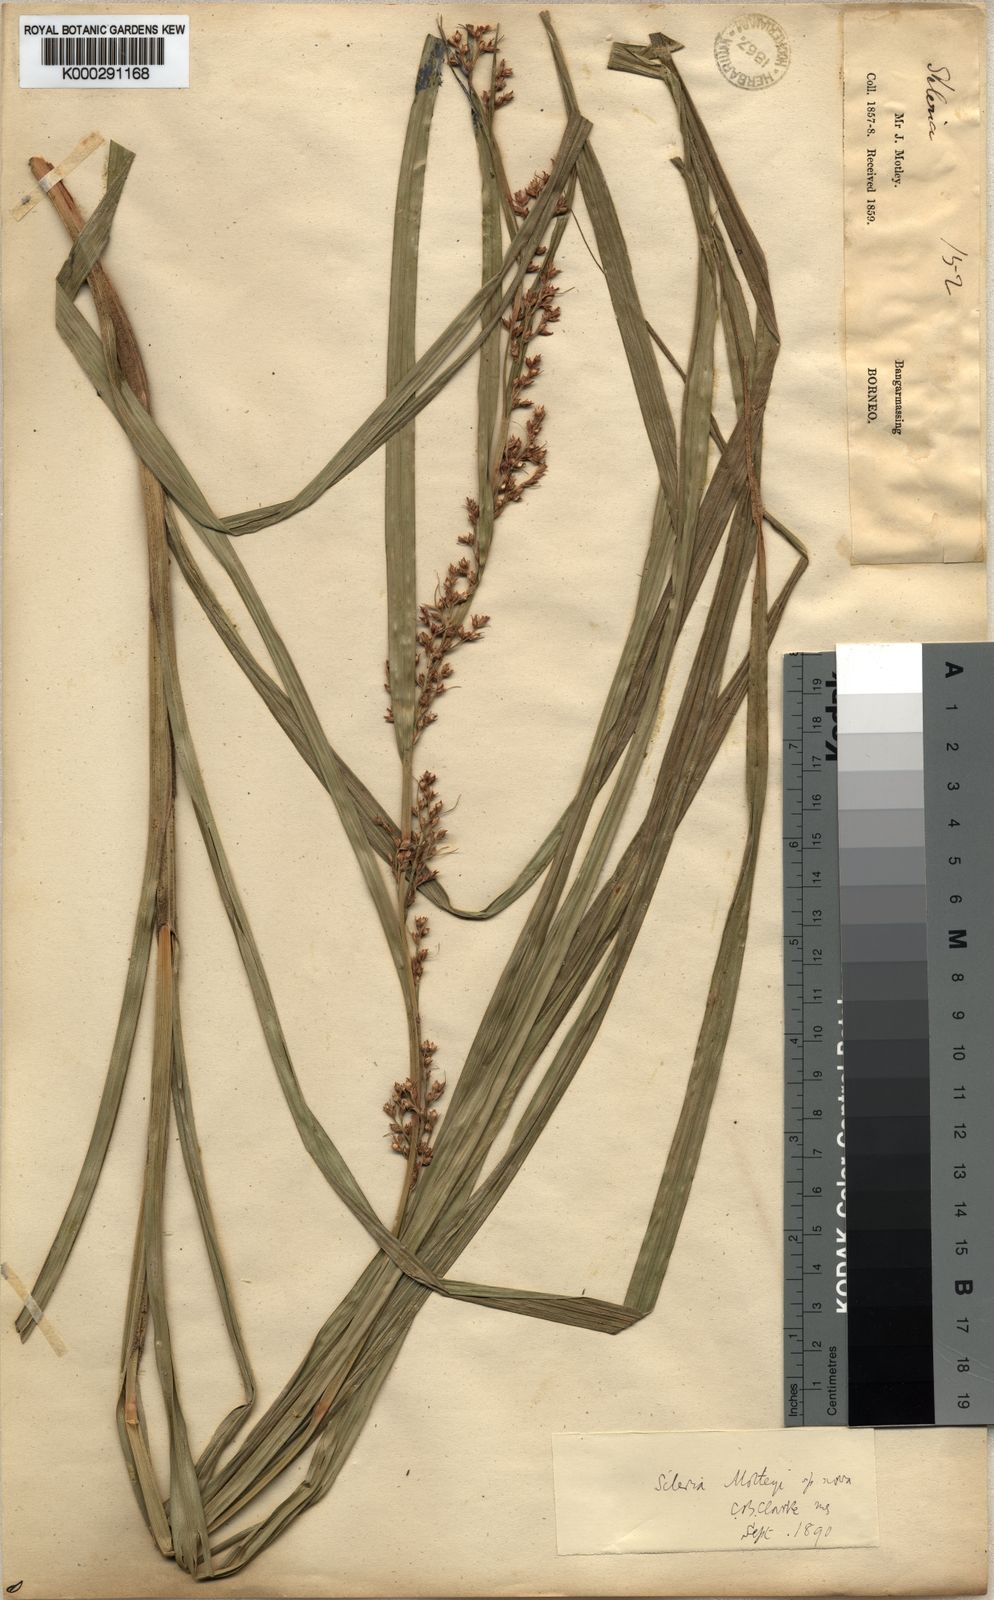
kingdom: Plantae
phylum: Tracheophyta
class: Liliopsida
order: Poales
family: Cyperaceae
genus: Scleria
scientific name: Scleria motleyi
